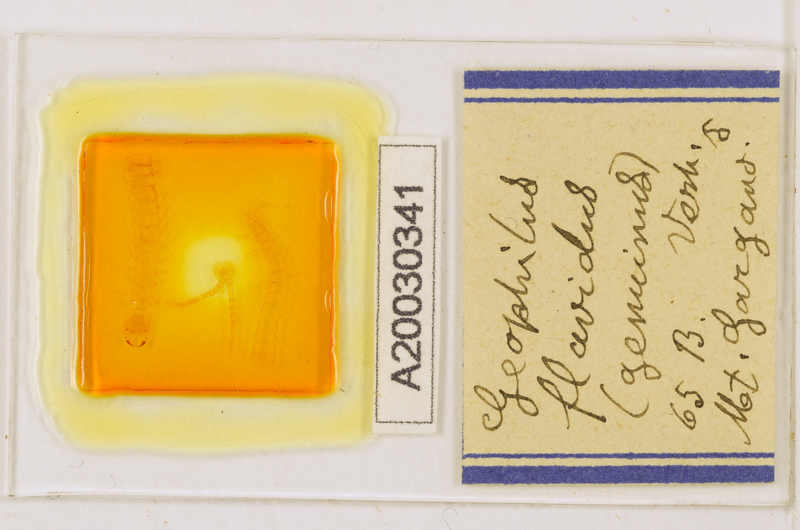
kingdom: Animalia
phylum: Arthropoda
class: Chilopoda
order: Geophilomorpha
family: Geophilidae
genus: Clinopodes
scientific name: Clinopodes flavidus
